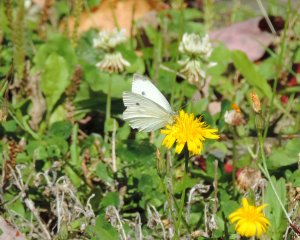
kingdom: Animalia
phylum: Arthropoda
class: Insecta
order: Lepidoptera
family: Pieridae
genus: Pieris
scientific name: Pieris rapae
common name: Cabbage White
